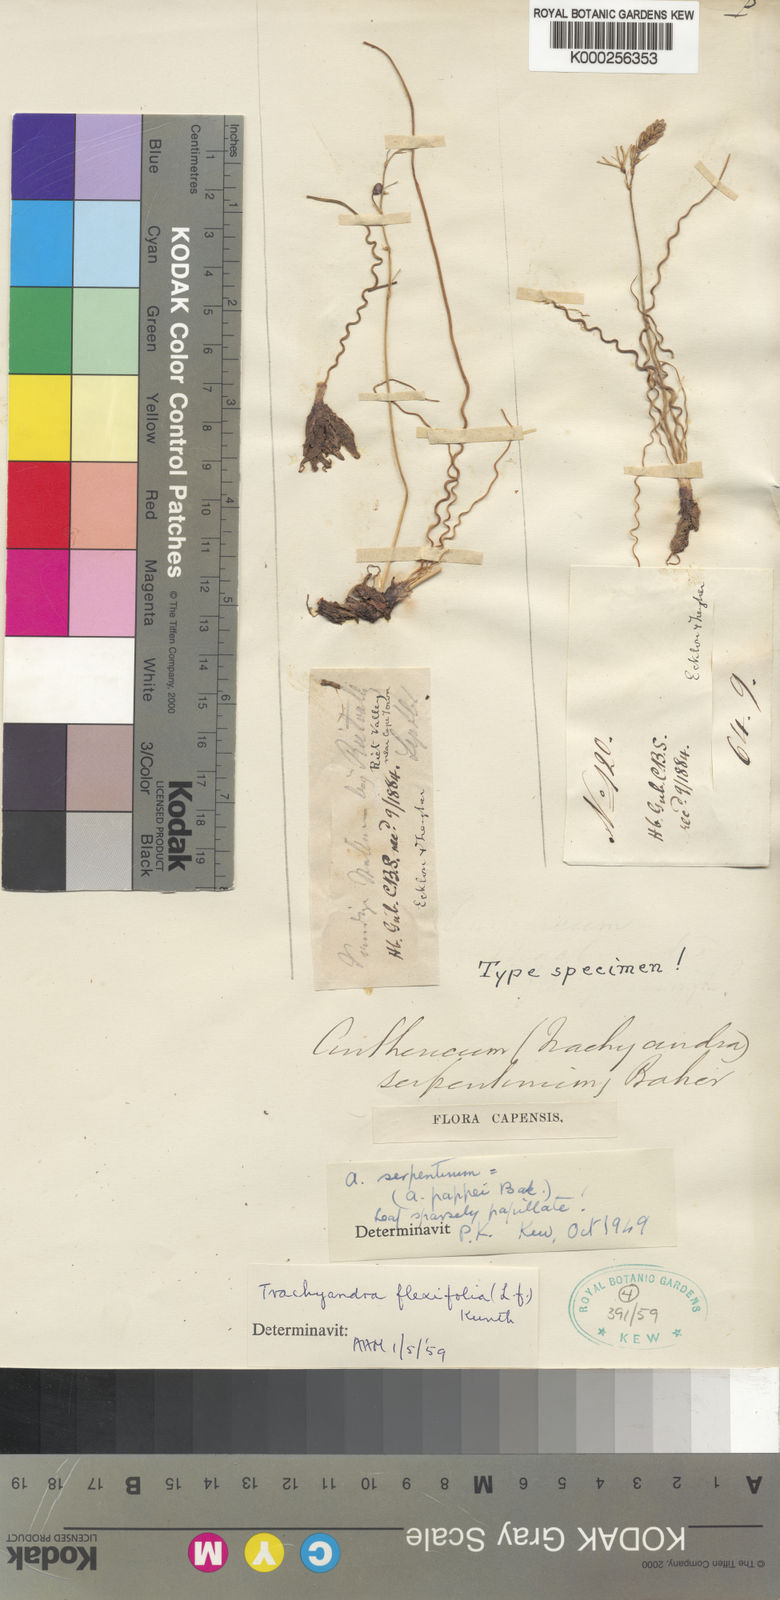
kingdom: Plantae
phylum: Tracheophyta
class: Liliopsida
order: Asparagales
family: Asphodelaceae
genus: Trachyandra
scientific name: Trachyandra flexifolia
